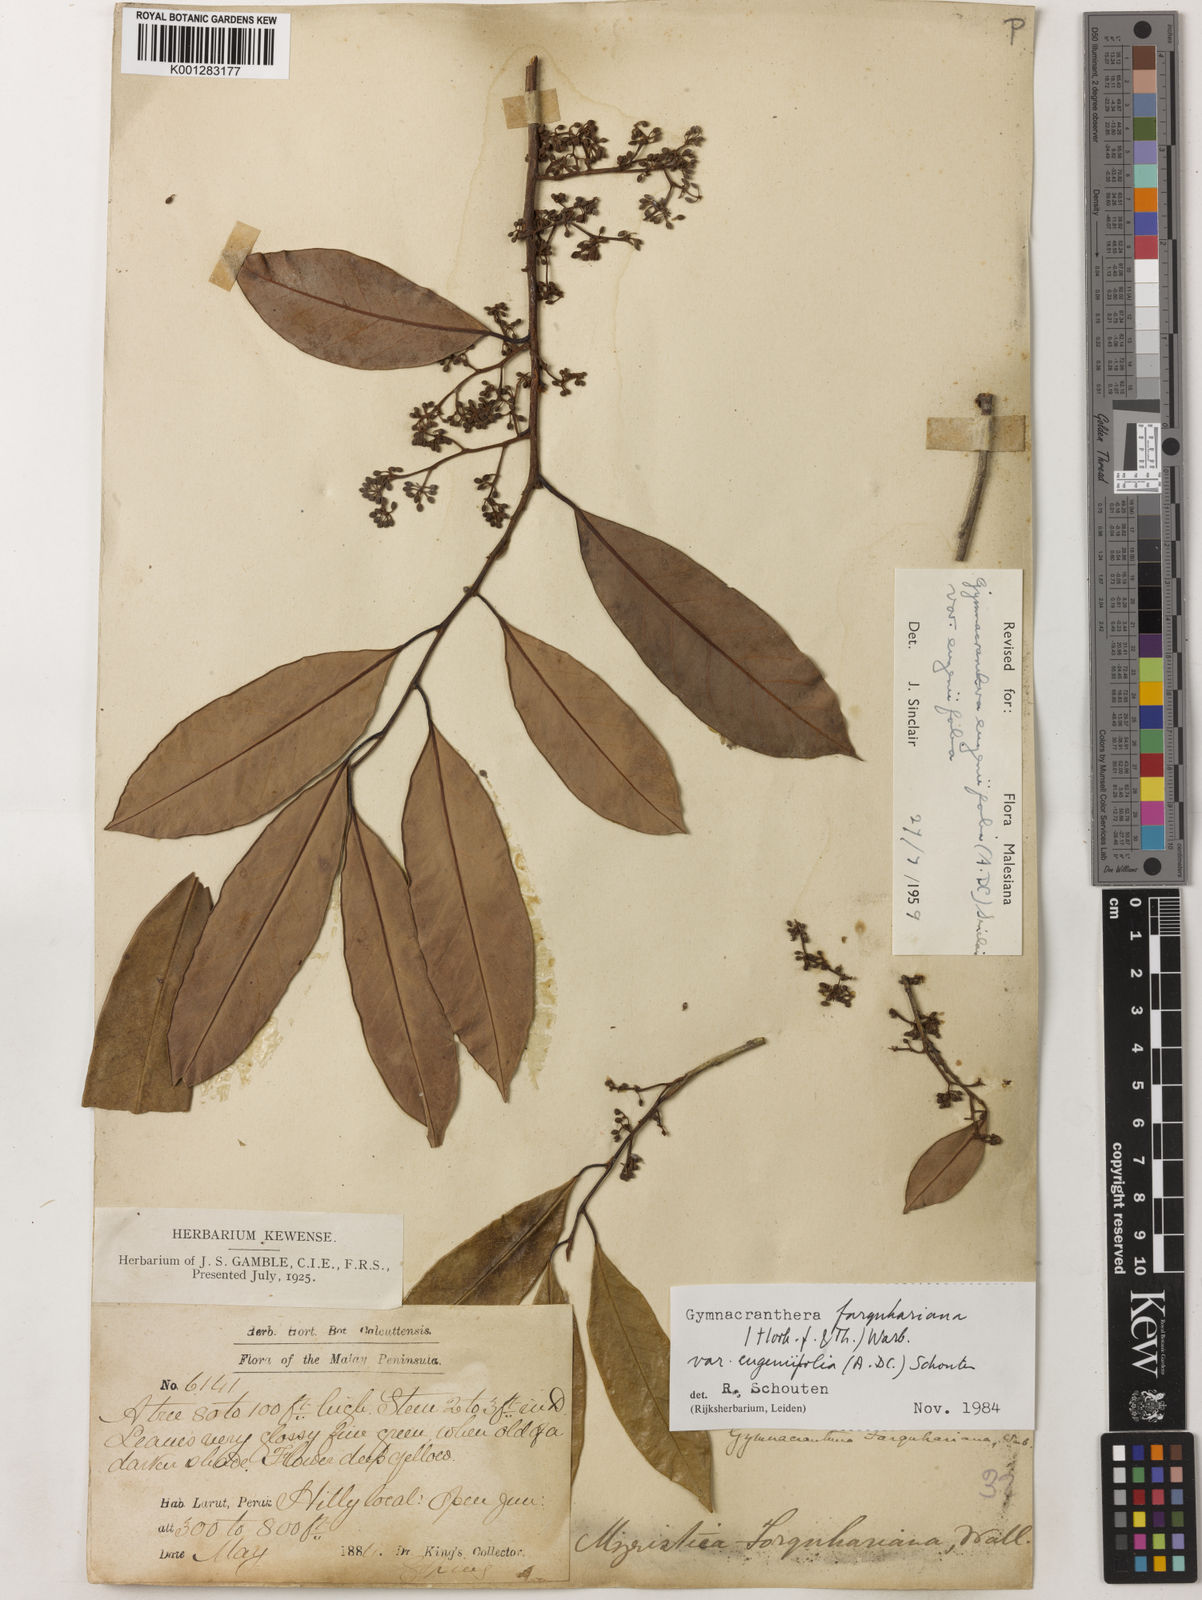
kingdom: Plantae
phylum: Tracheophyta
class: Magnoliopsida
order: Magnoliales
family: Myristicaceae
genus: Gymnacranthera
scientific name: Gymnacranthera farquhariana
